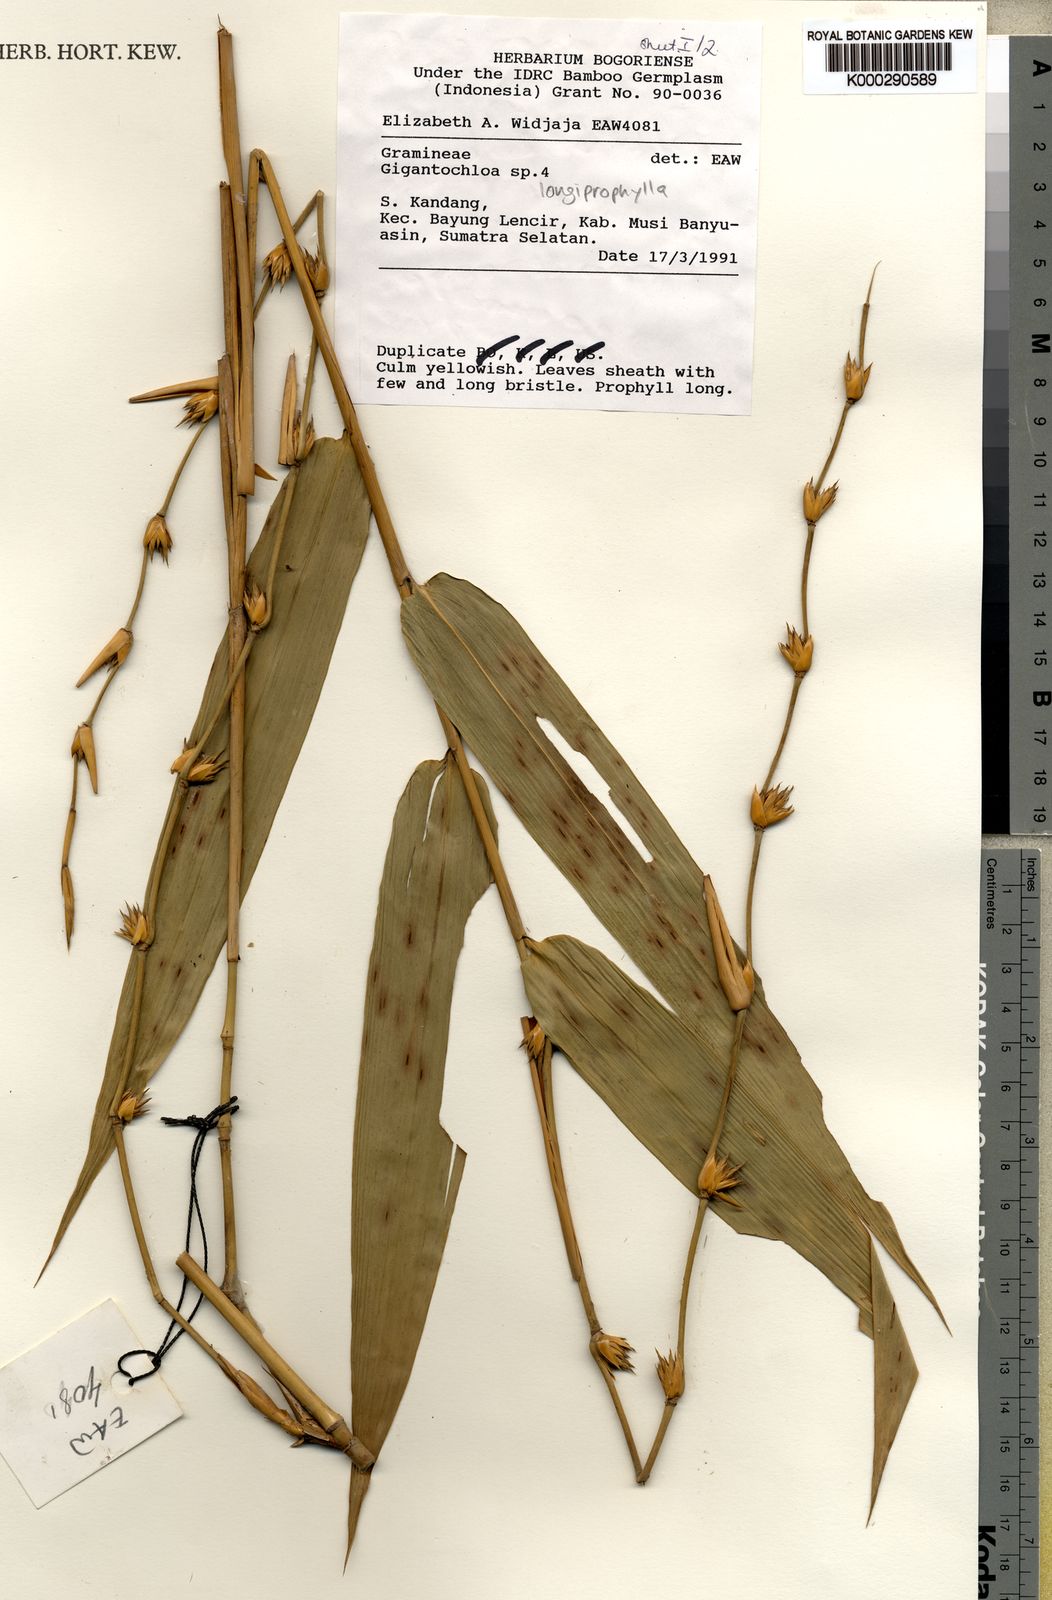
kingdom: Plantae
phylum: Tracheophyta
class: Liliopsida
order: Poales
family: Poaceae
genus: Gigantochloa
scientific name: Gigantochloa longiprophylla
